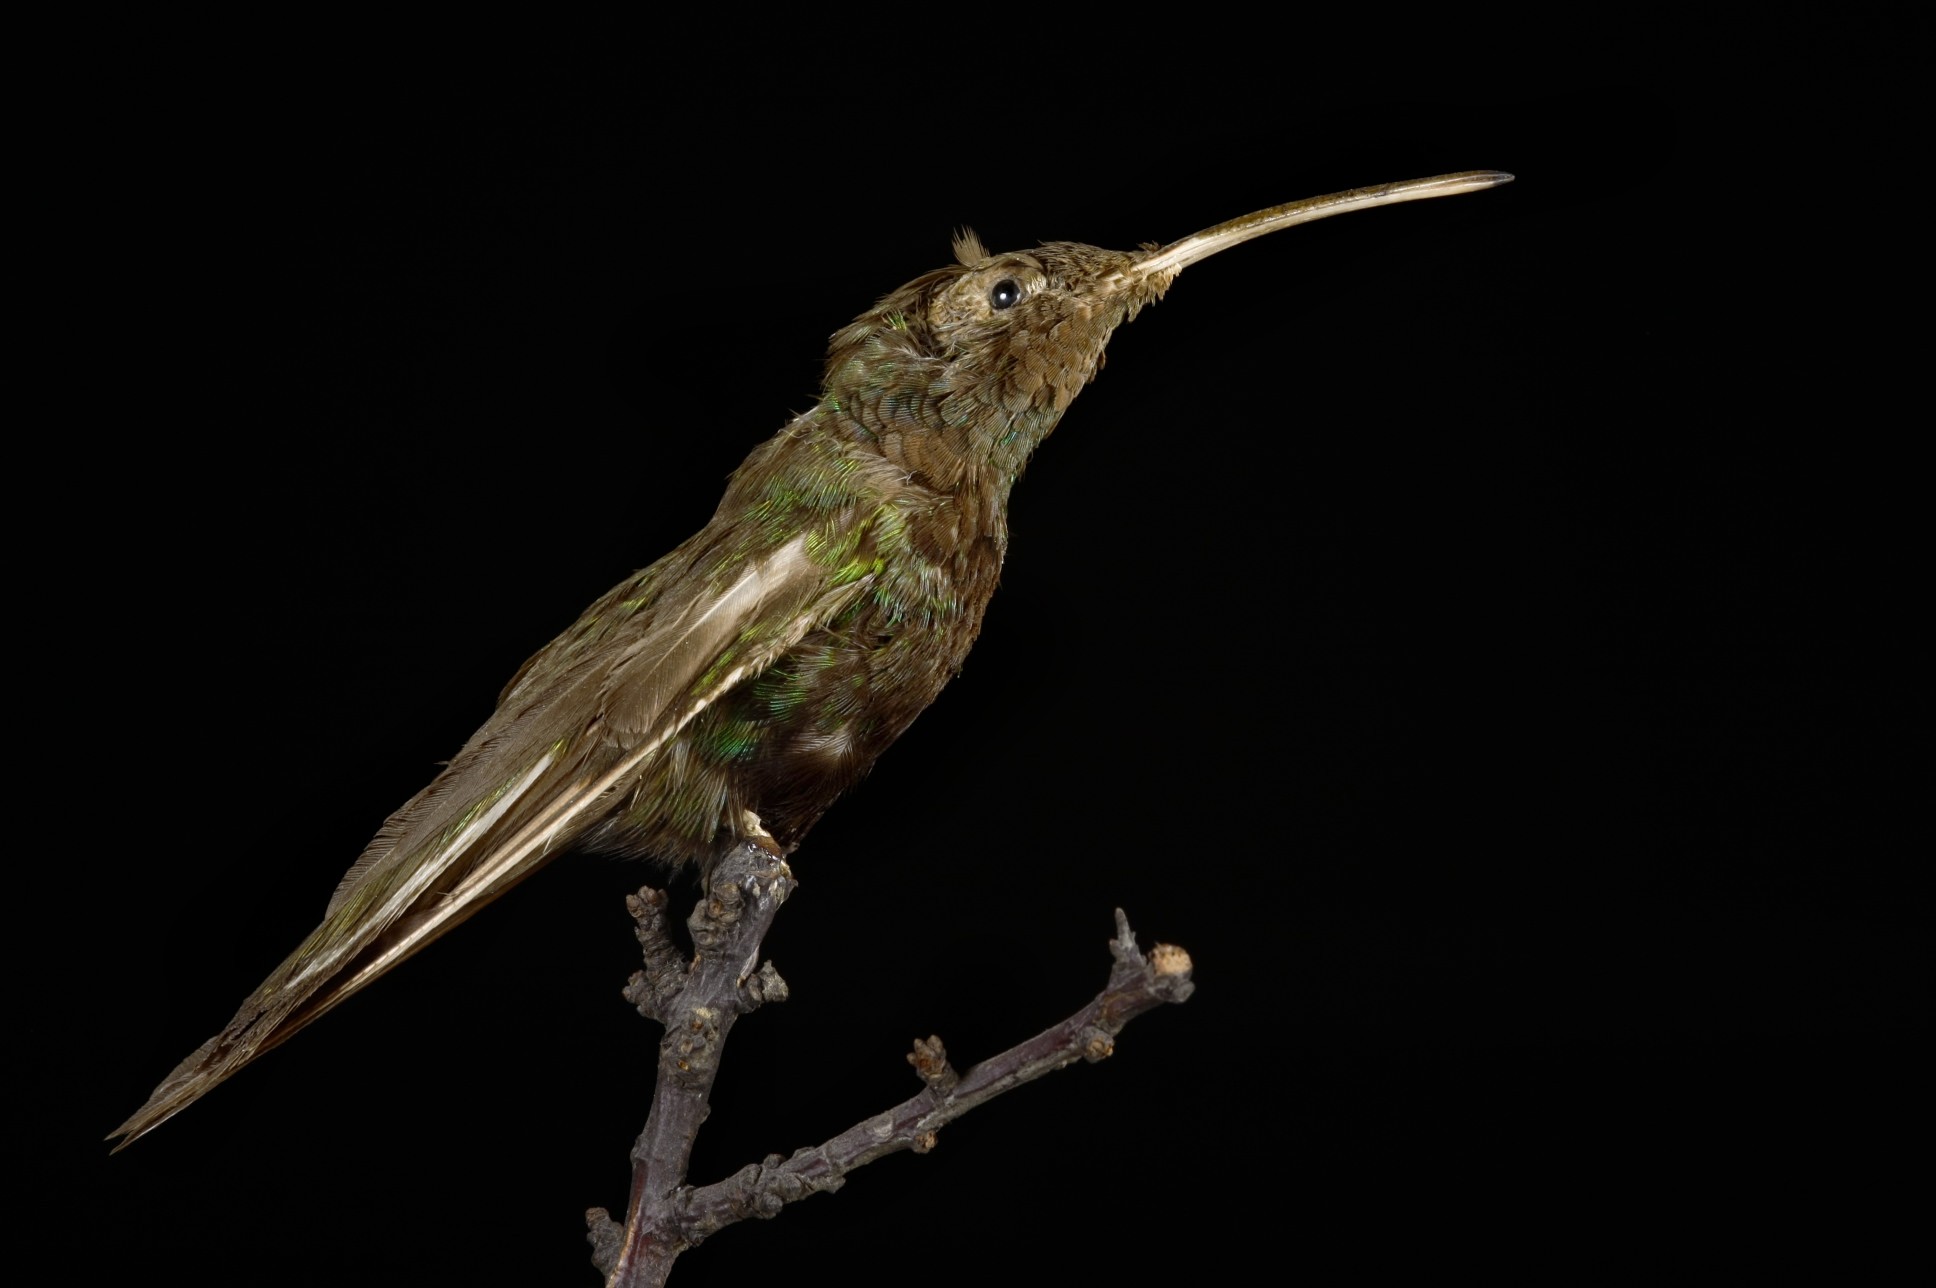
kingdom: Animalia
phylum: Chordata
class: Aves
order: Apodiformes
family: Trochilidae
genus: Lafresnaya
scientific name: Lafresnaya lafresnayi
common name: Mountain velvetbreast
